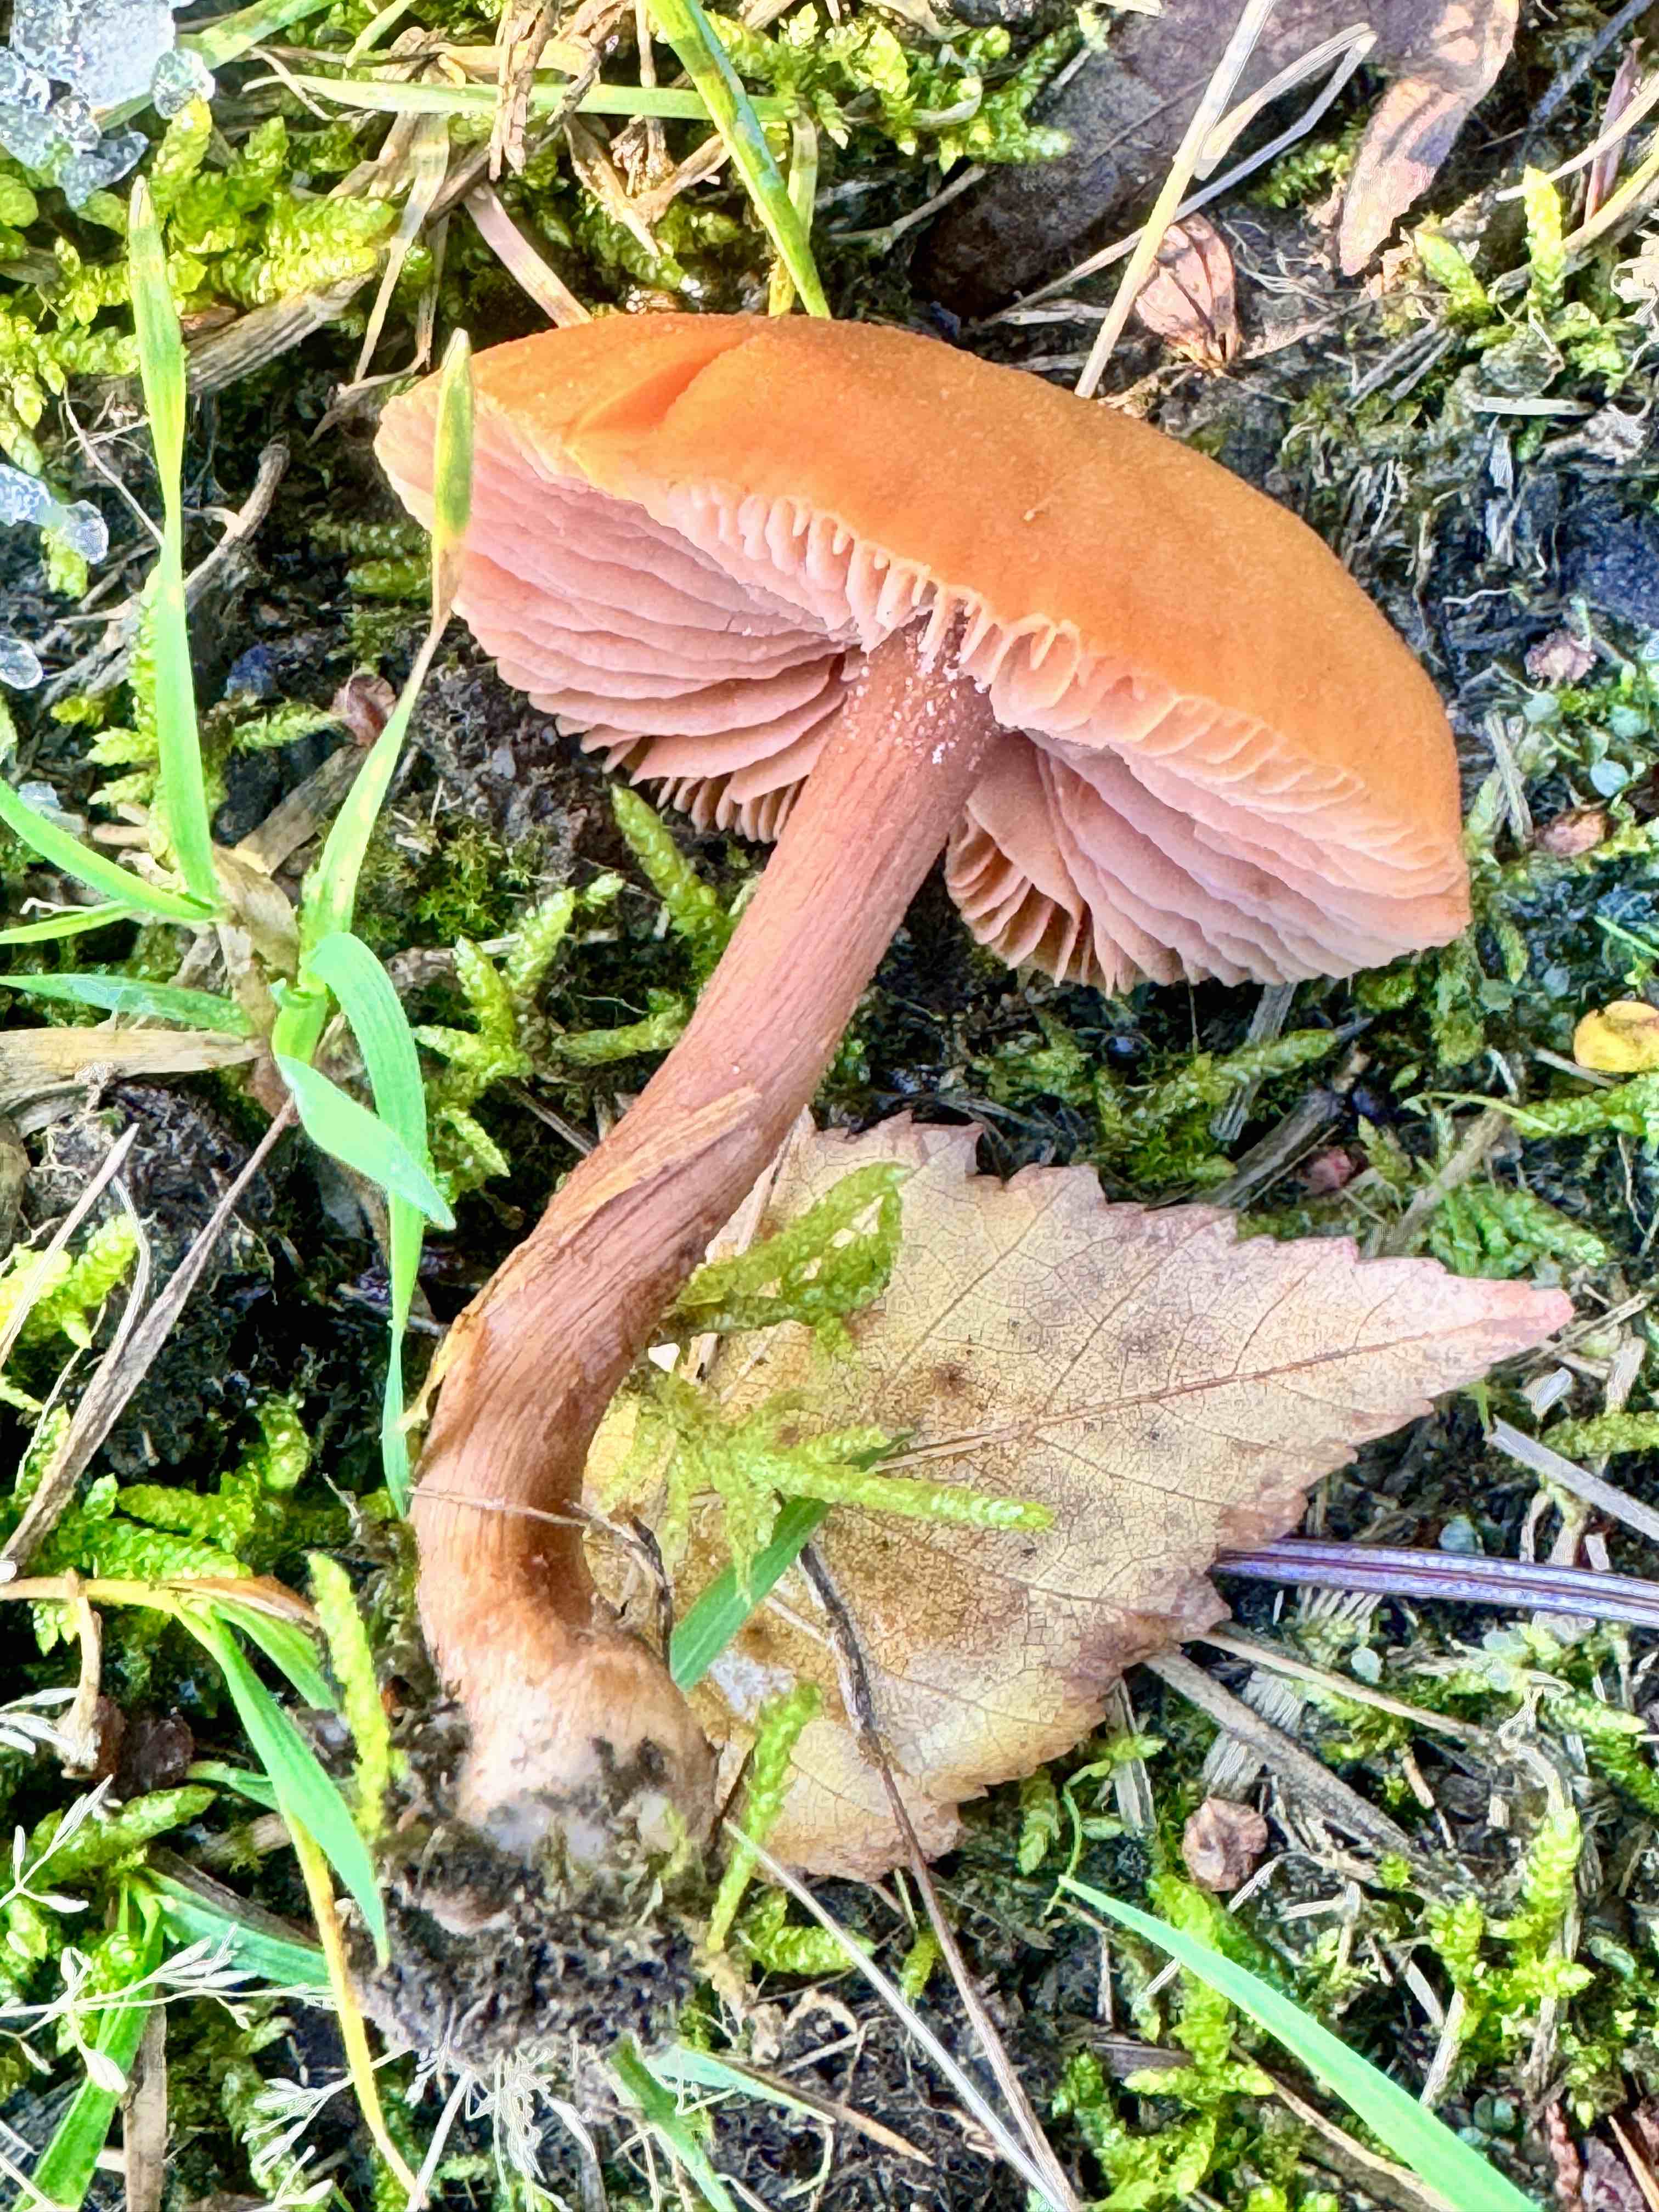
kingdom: Fungi
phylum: Basidiomycota
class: Agaricomycetes
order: Agaricales
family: Hydnangiaceae
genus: Laccaria
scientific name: Laccaria laccata
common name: rød ametysthat
